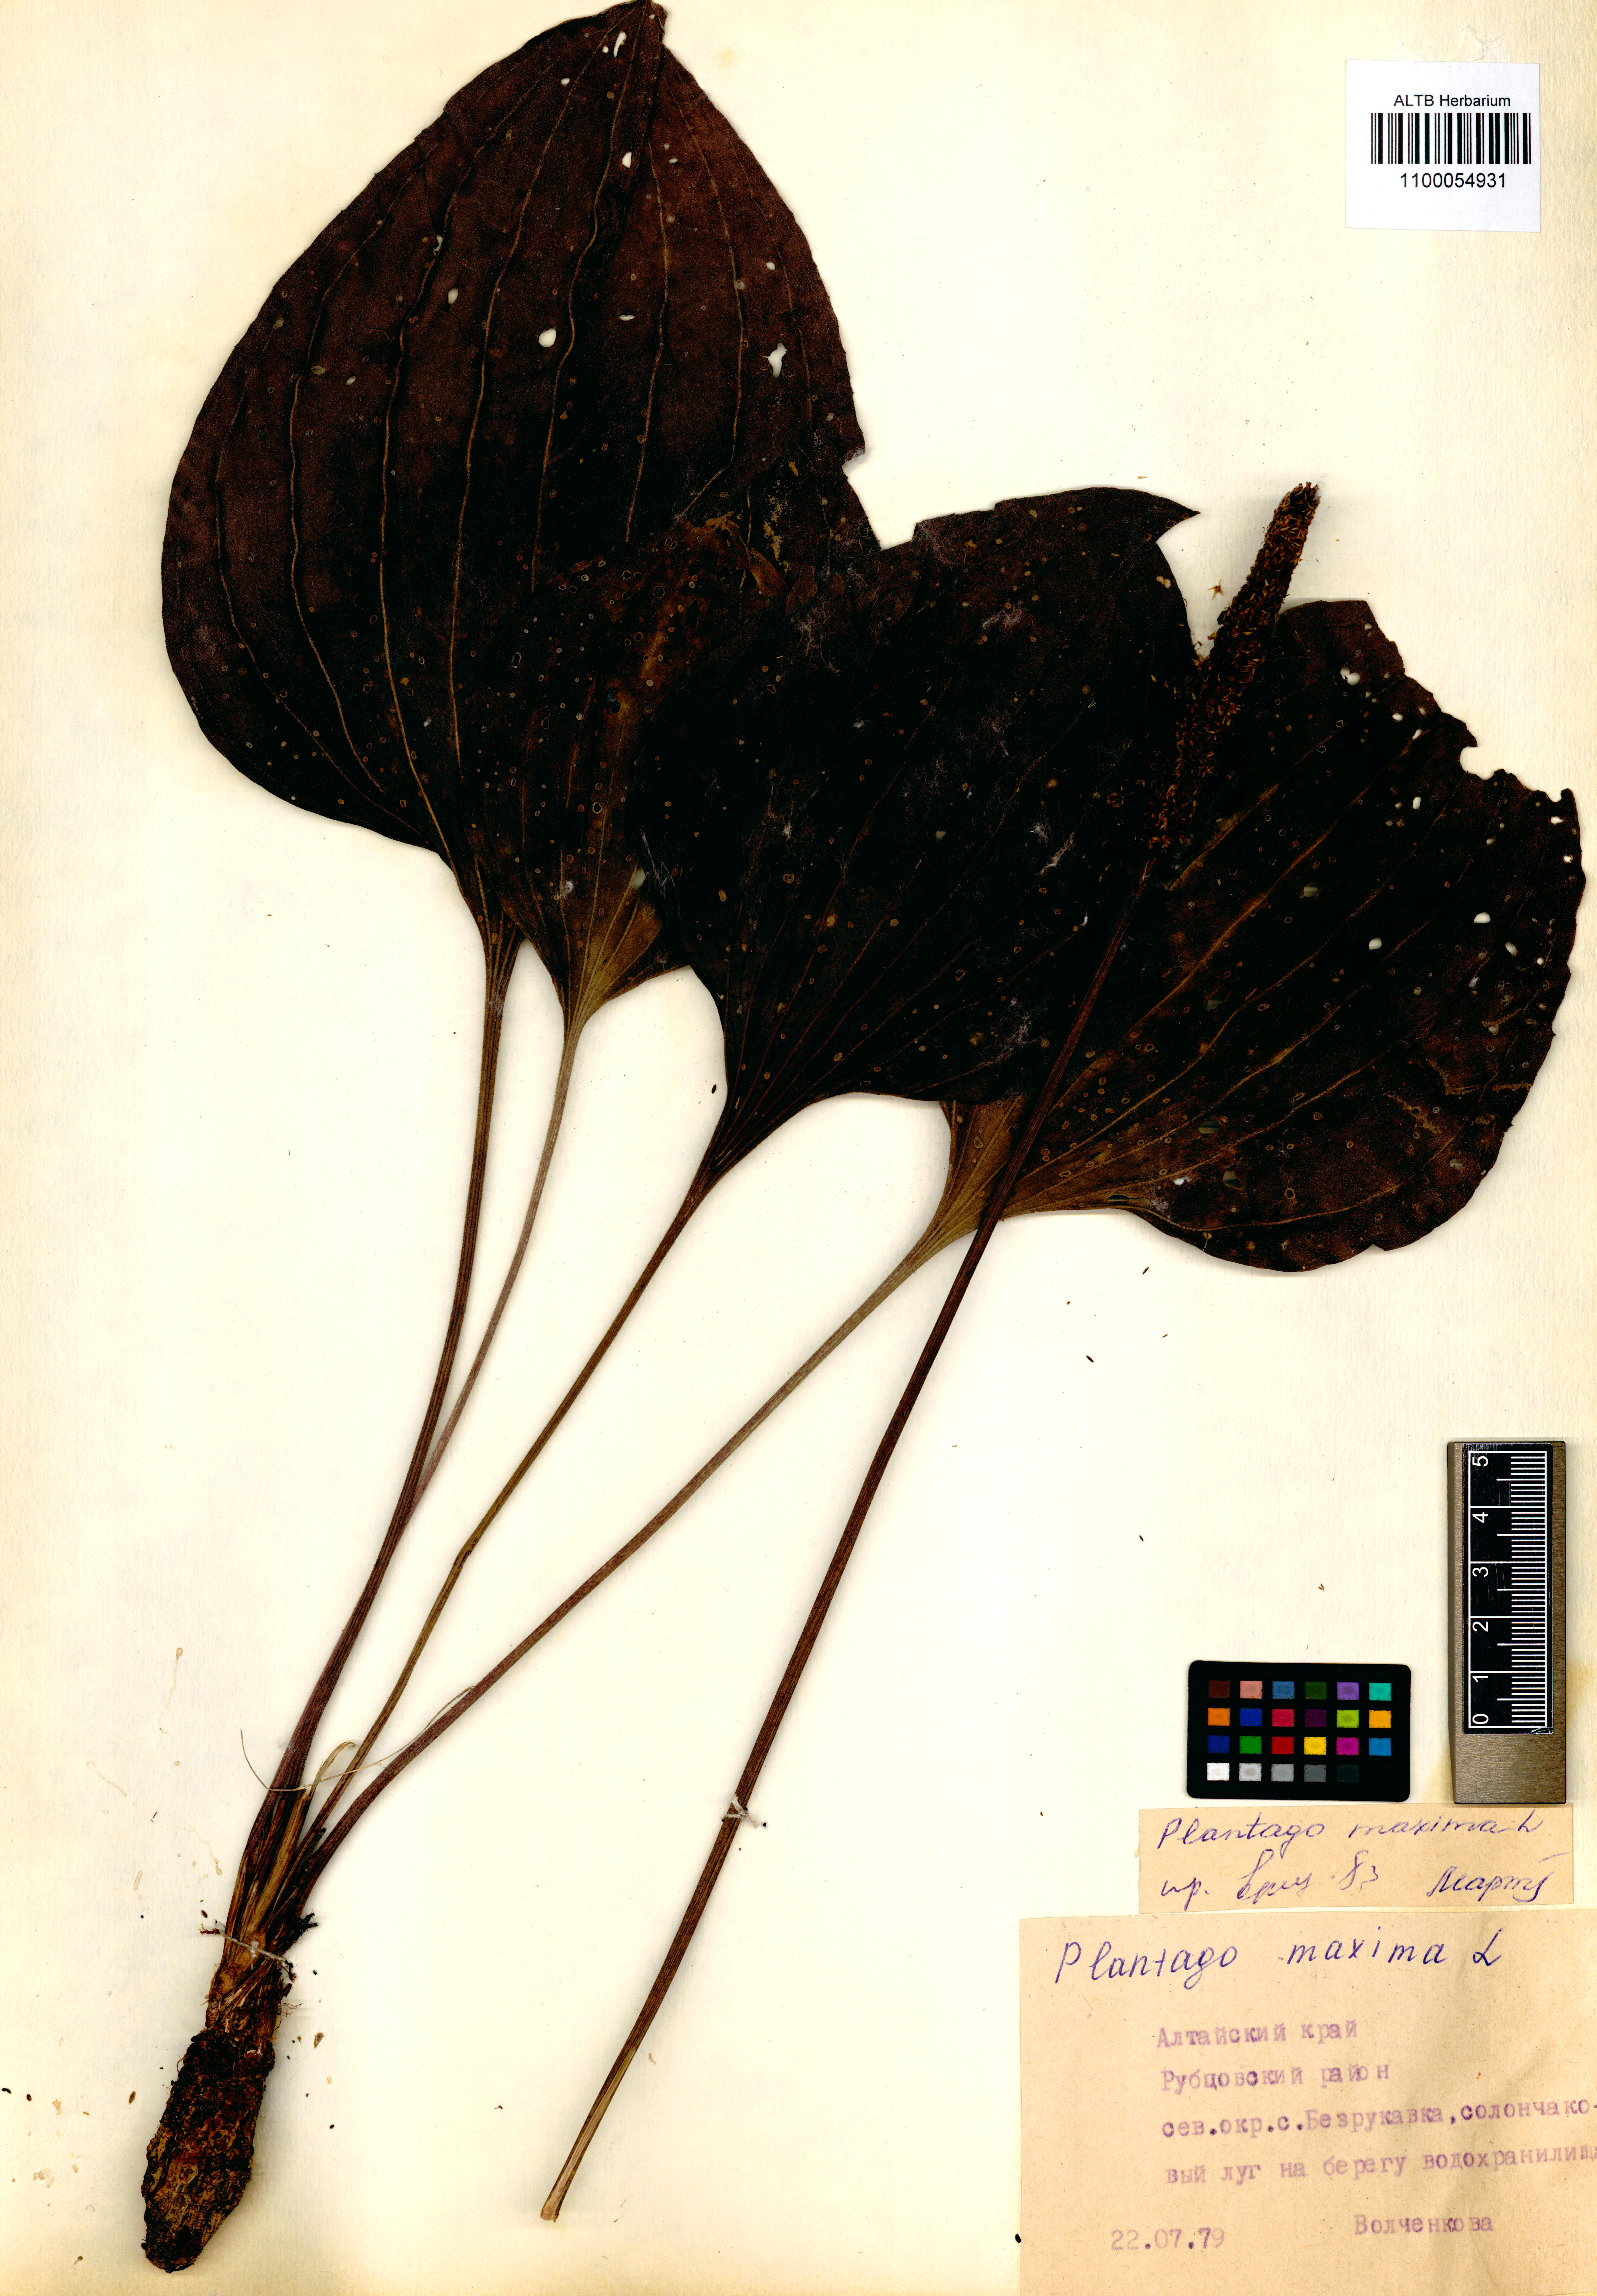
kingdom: Plantae
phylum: Tracheophyta
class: Magnoliopsida
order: Lamiales
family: Plantaginaceae
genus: Plantago
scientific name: Plantago maxima
